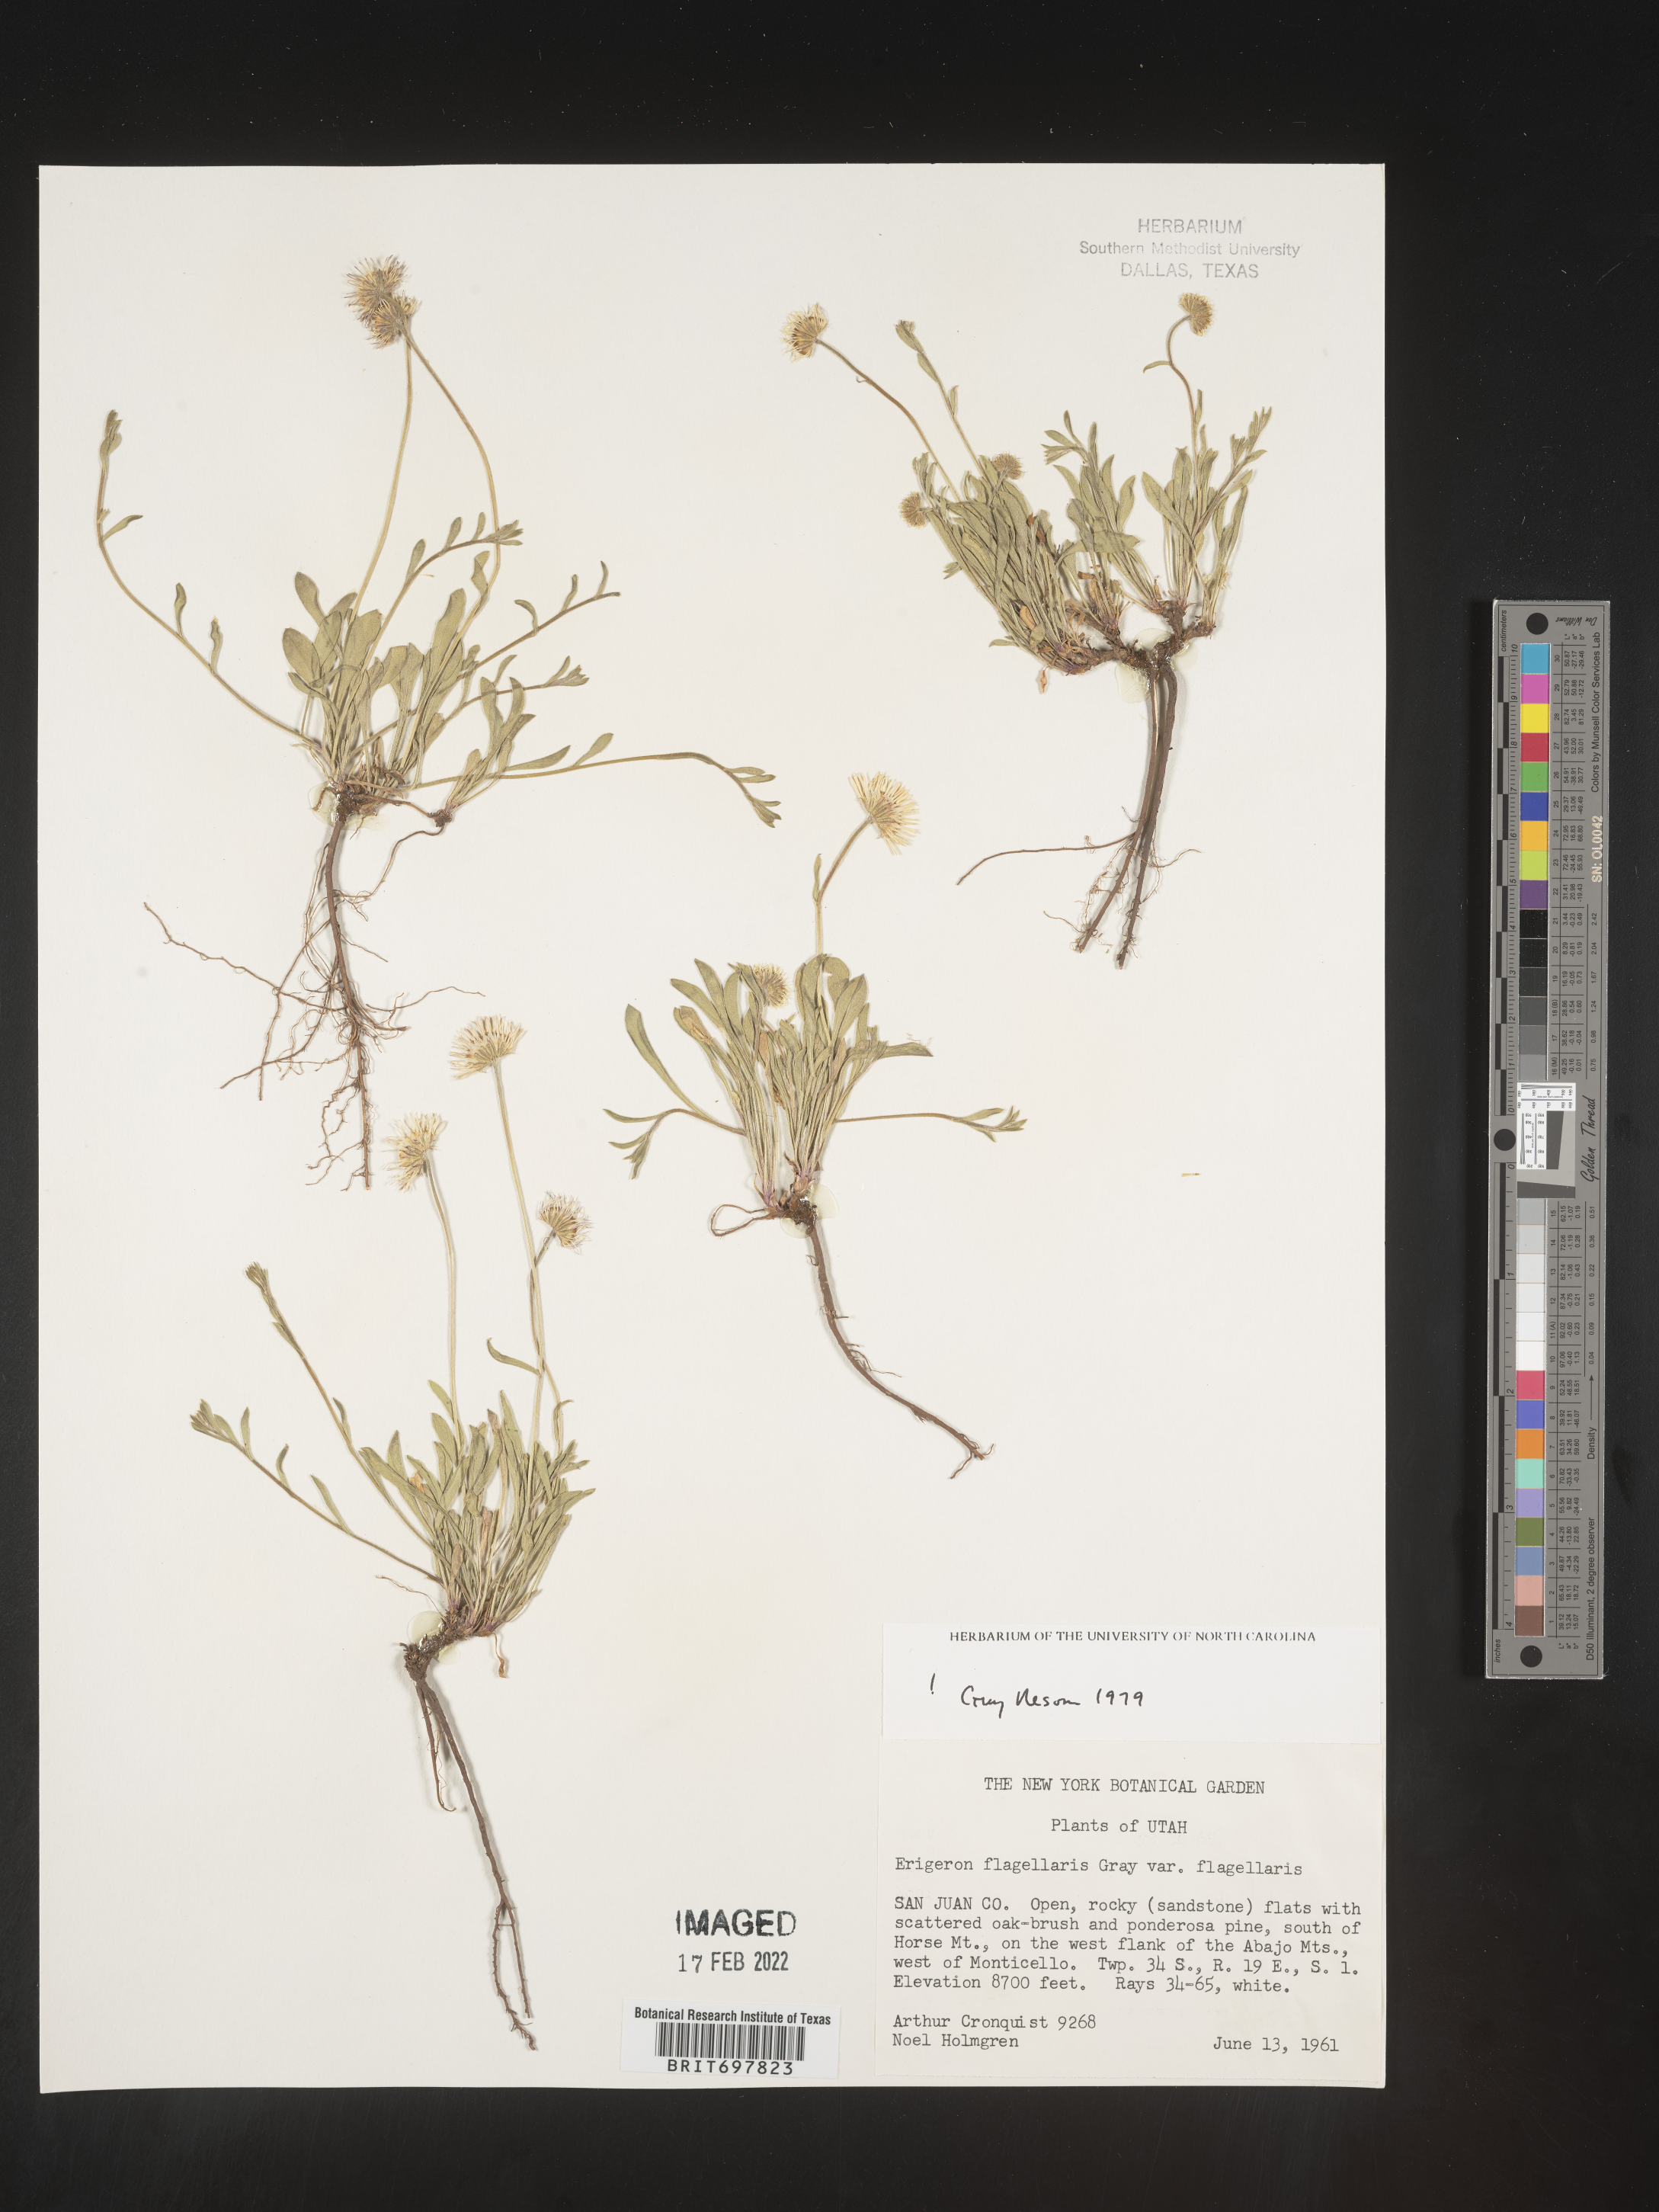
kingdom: Plantae
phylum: Tracheophyta
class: Magnoliopsida
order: Asterales
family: Asteraceae
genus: Erigeron
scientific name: Erigeron flagellaris
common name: Running fleabane
